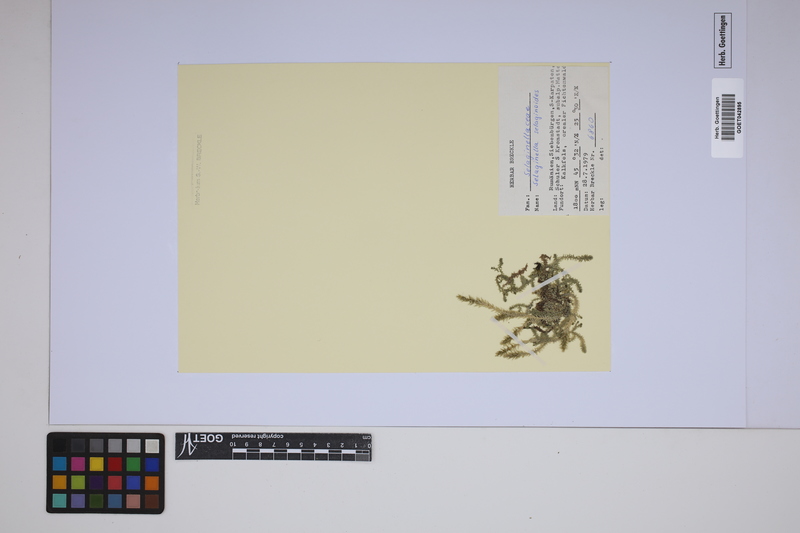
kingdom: Plantae
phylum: Tracheophyta
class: Lycopodiopsida
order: Selaginellales
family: Selaginellaceae
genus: Selaginella
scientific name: Selaginella selaginoides
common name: Prickly mountain-moss
